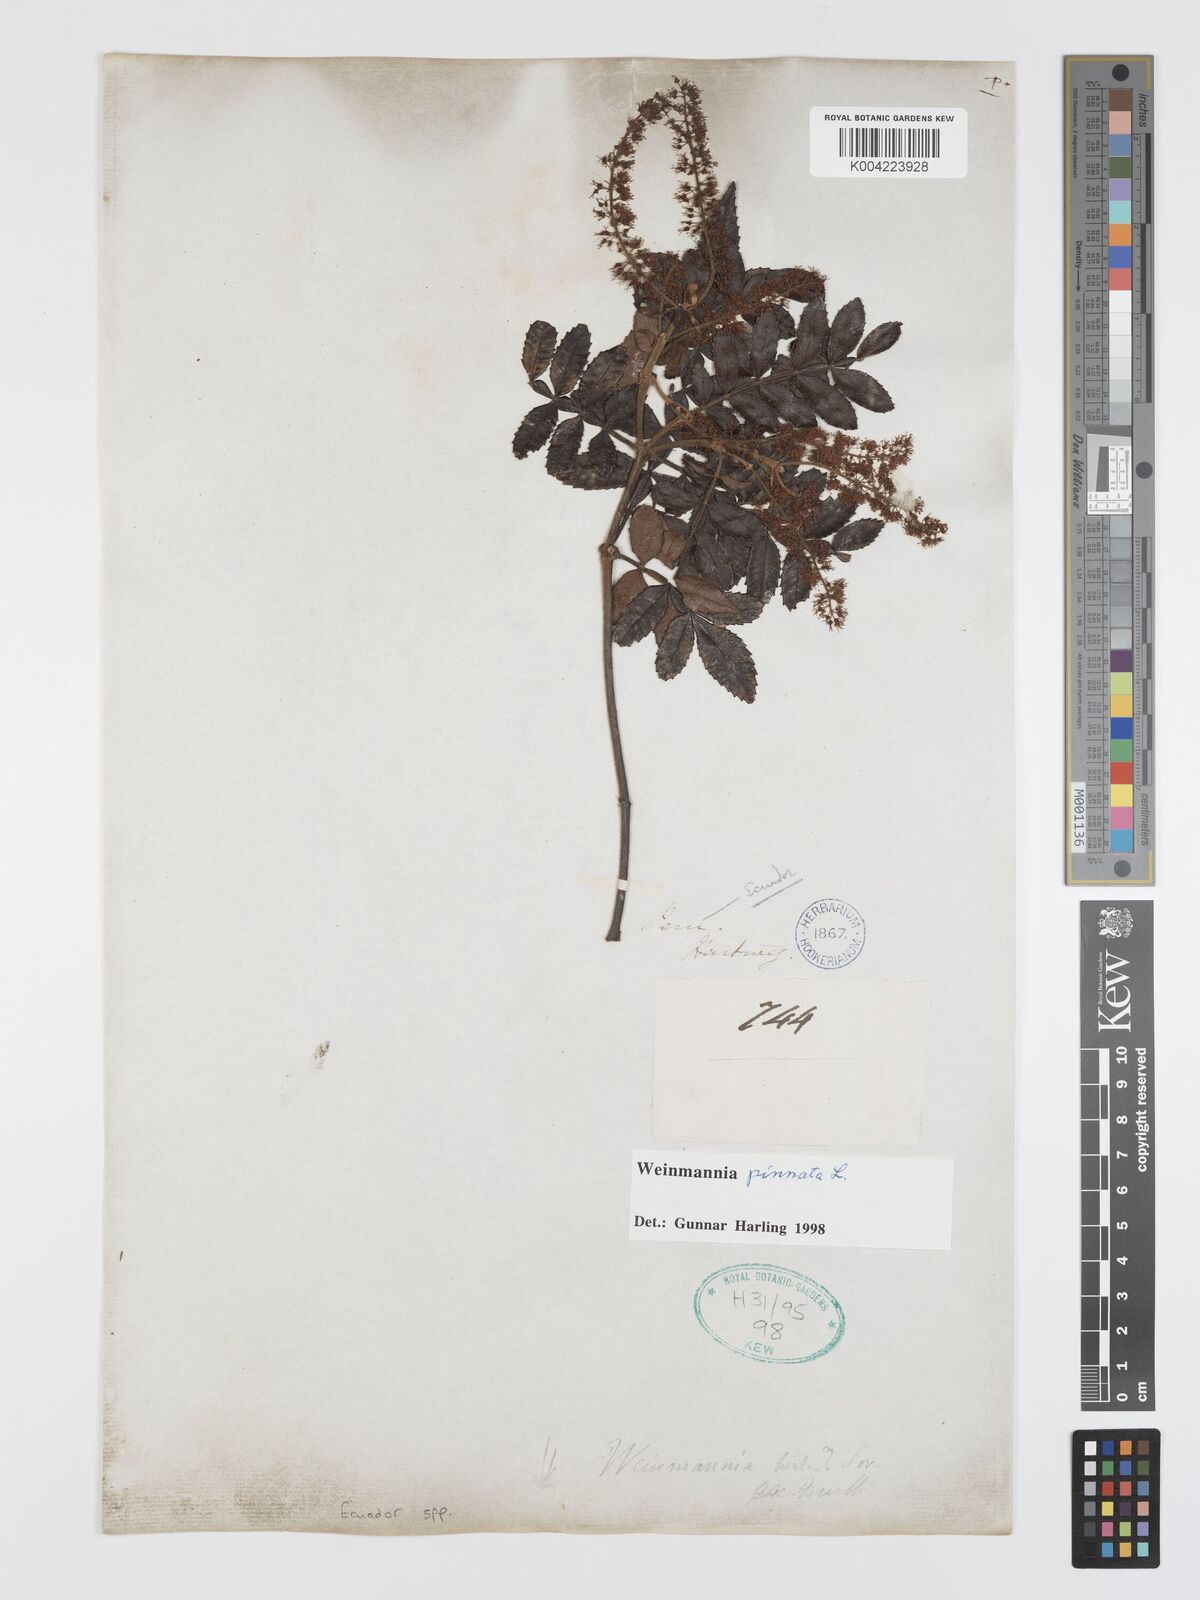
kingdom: Plantae
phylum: Tracheophyta
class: Magnoliopsida
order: Oxalidales
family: Cunoniaceae
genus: Weinmannia
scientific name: Weinmannia pinnata
